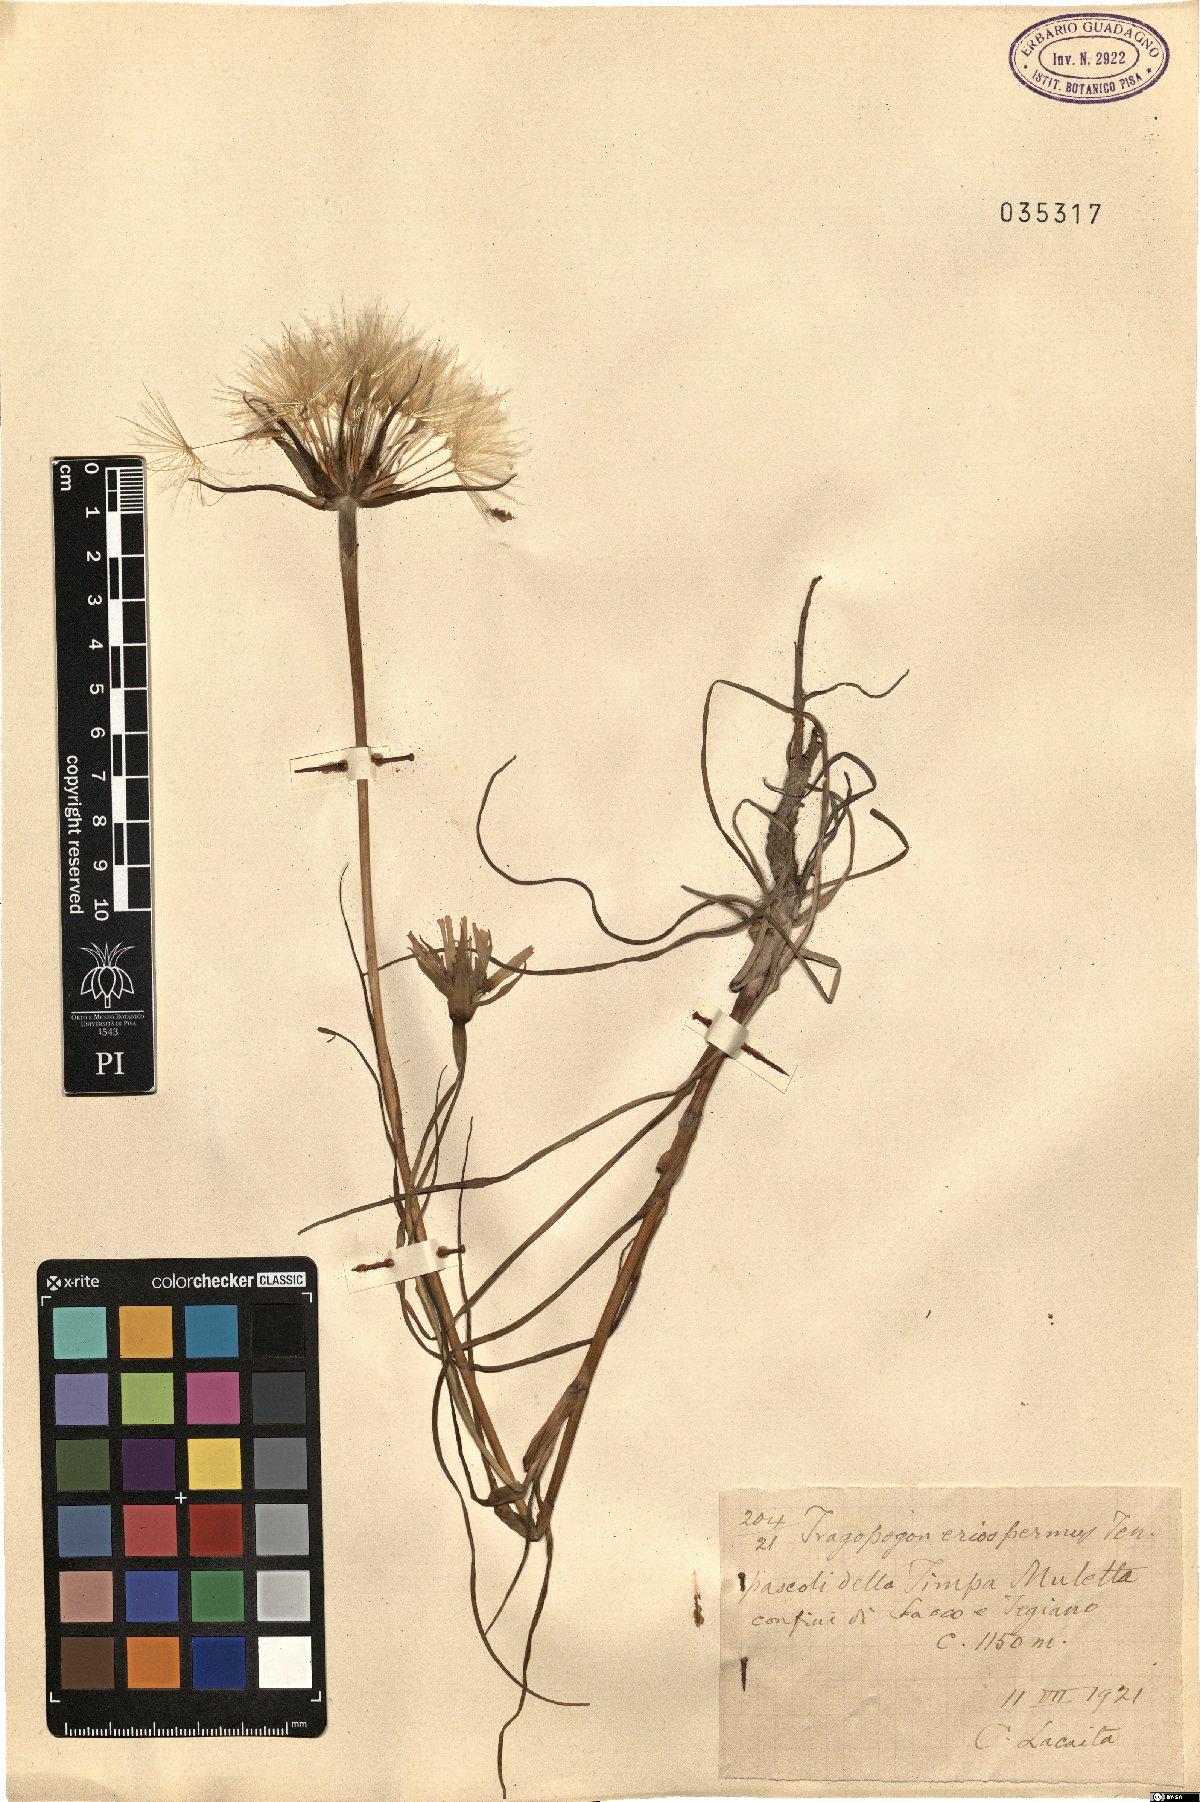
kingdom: Plantae
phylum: Tracheophyta
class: Magnoliopsida
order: Asterales
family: Asteraceae
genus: Tragopogon
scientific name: Tragopogon porrifolius
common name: Salsify
